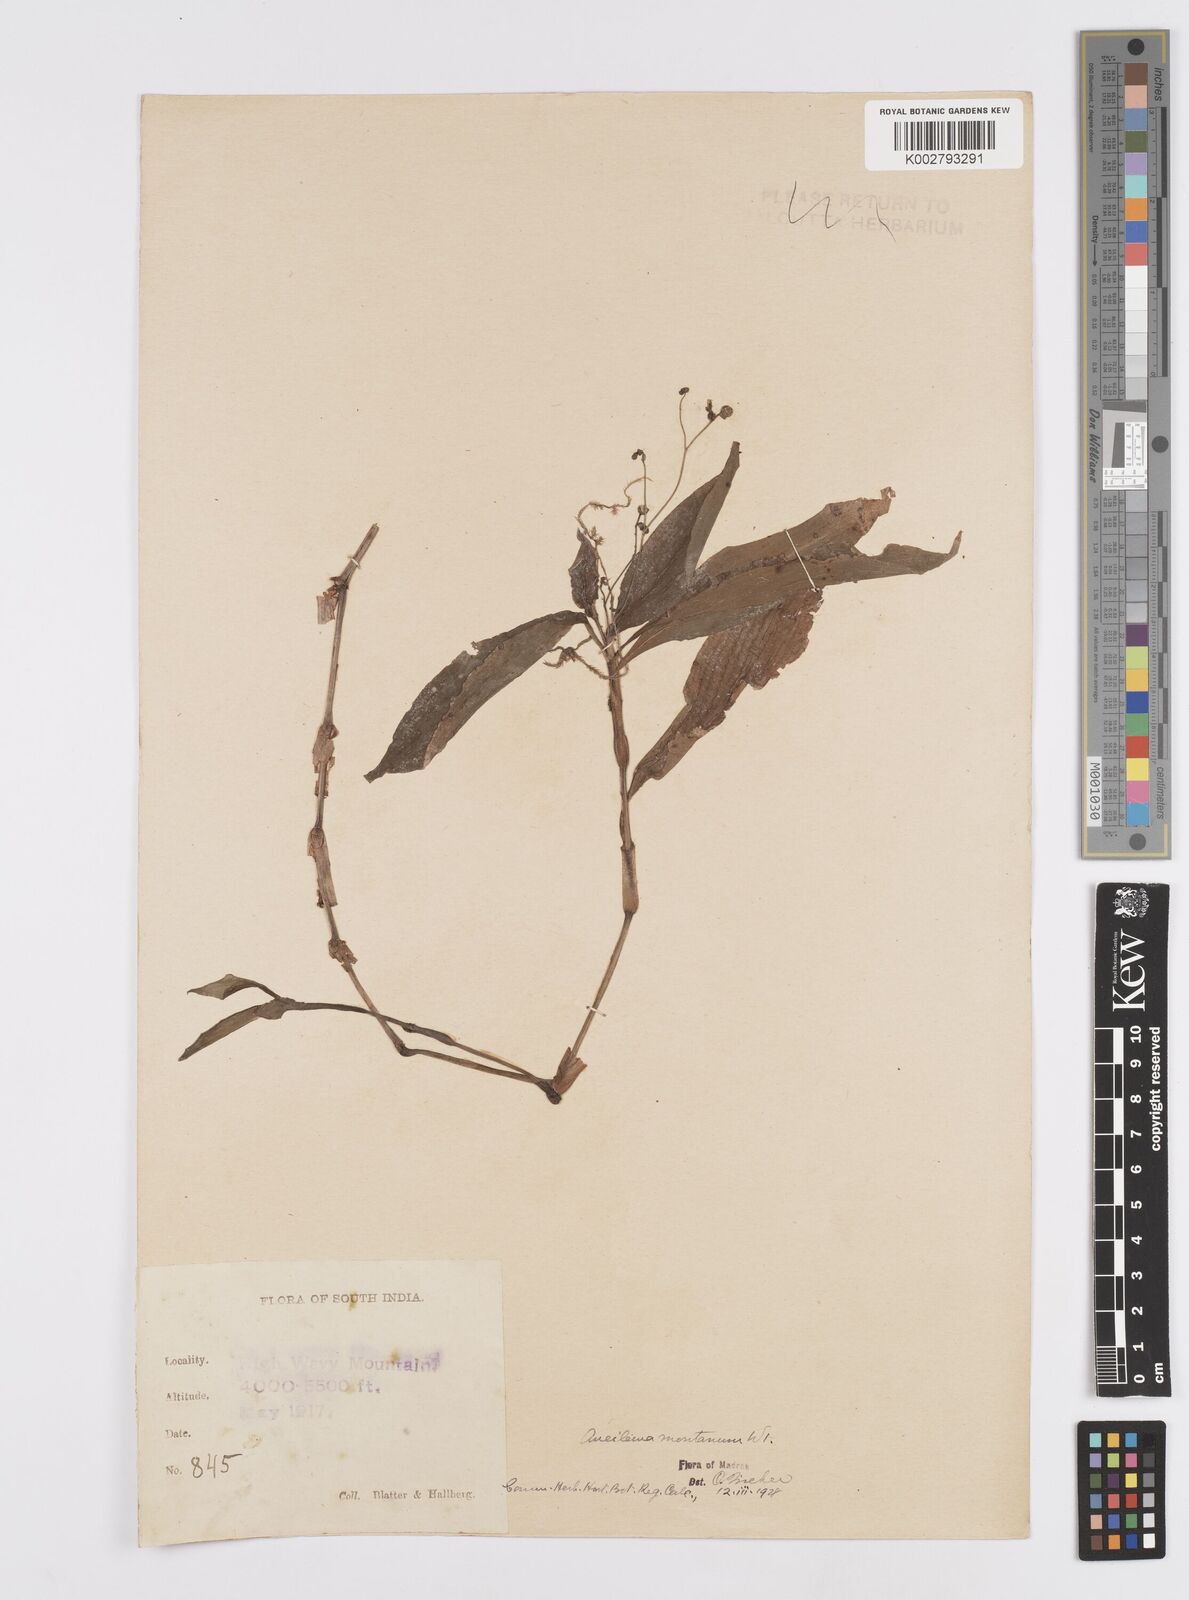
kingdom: Plantae
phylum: Tracheophyta
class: Liliopsida
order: Commelinales
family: Commelinaceae
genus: Murdannia
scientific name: Murdannia
